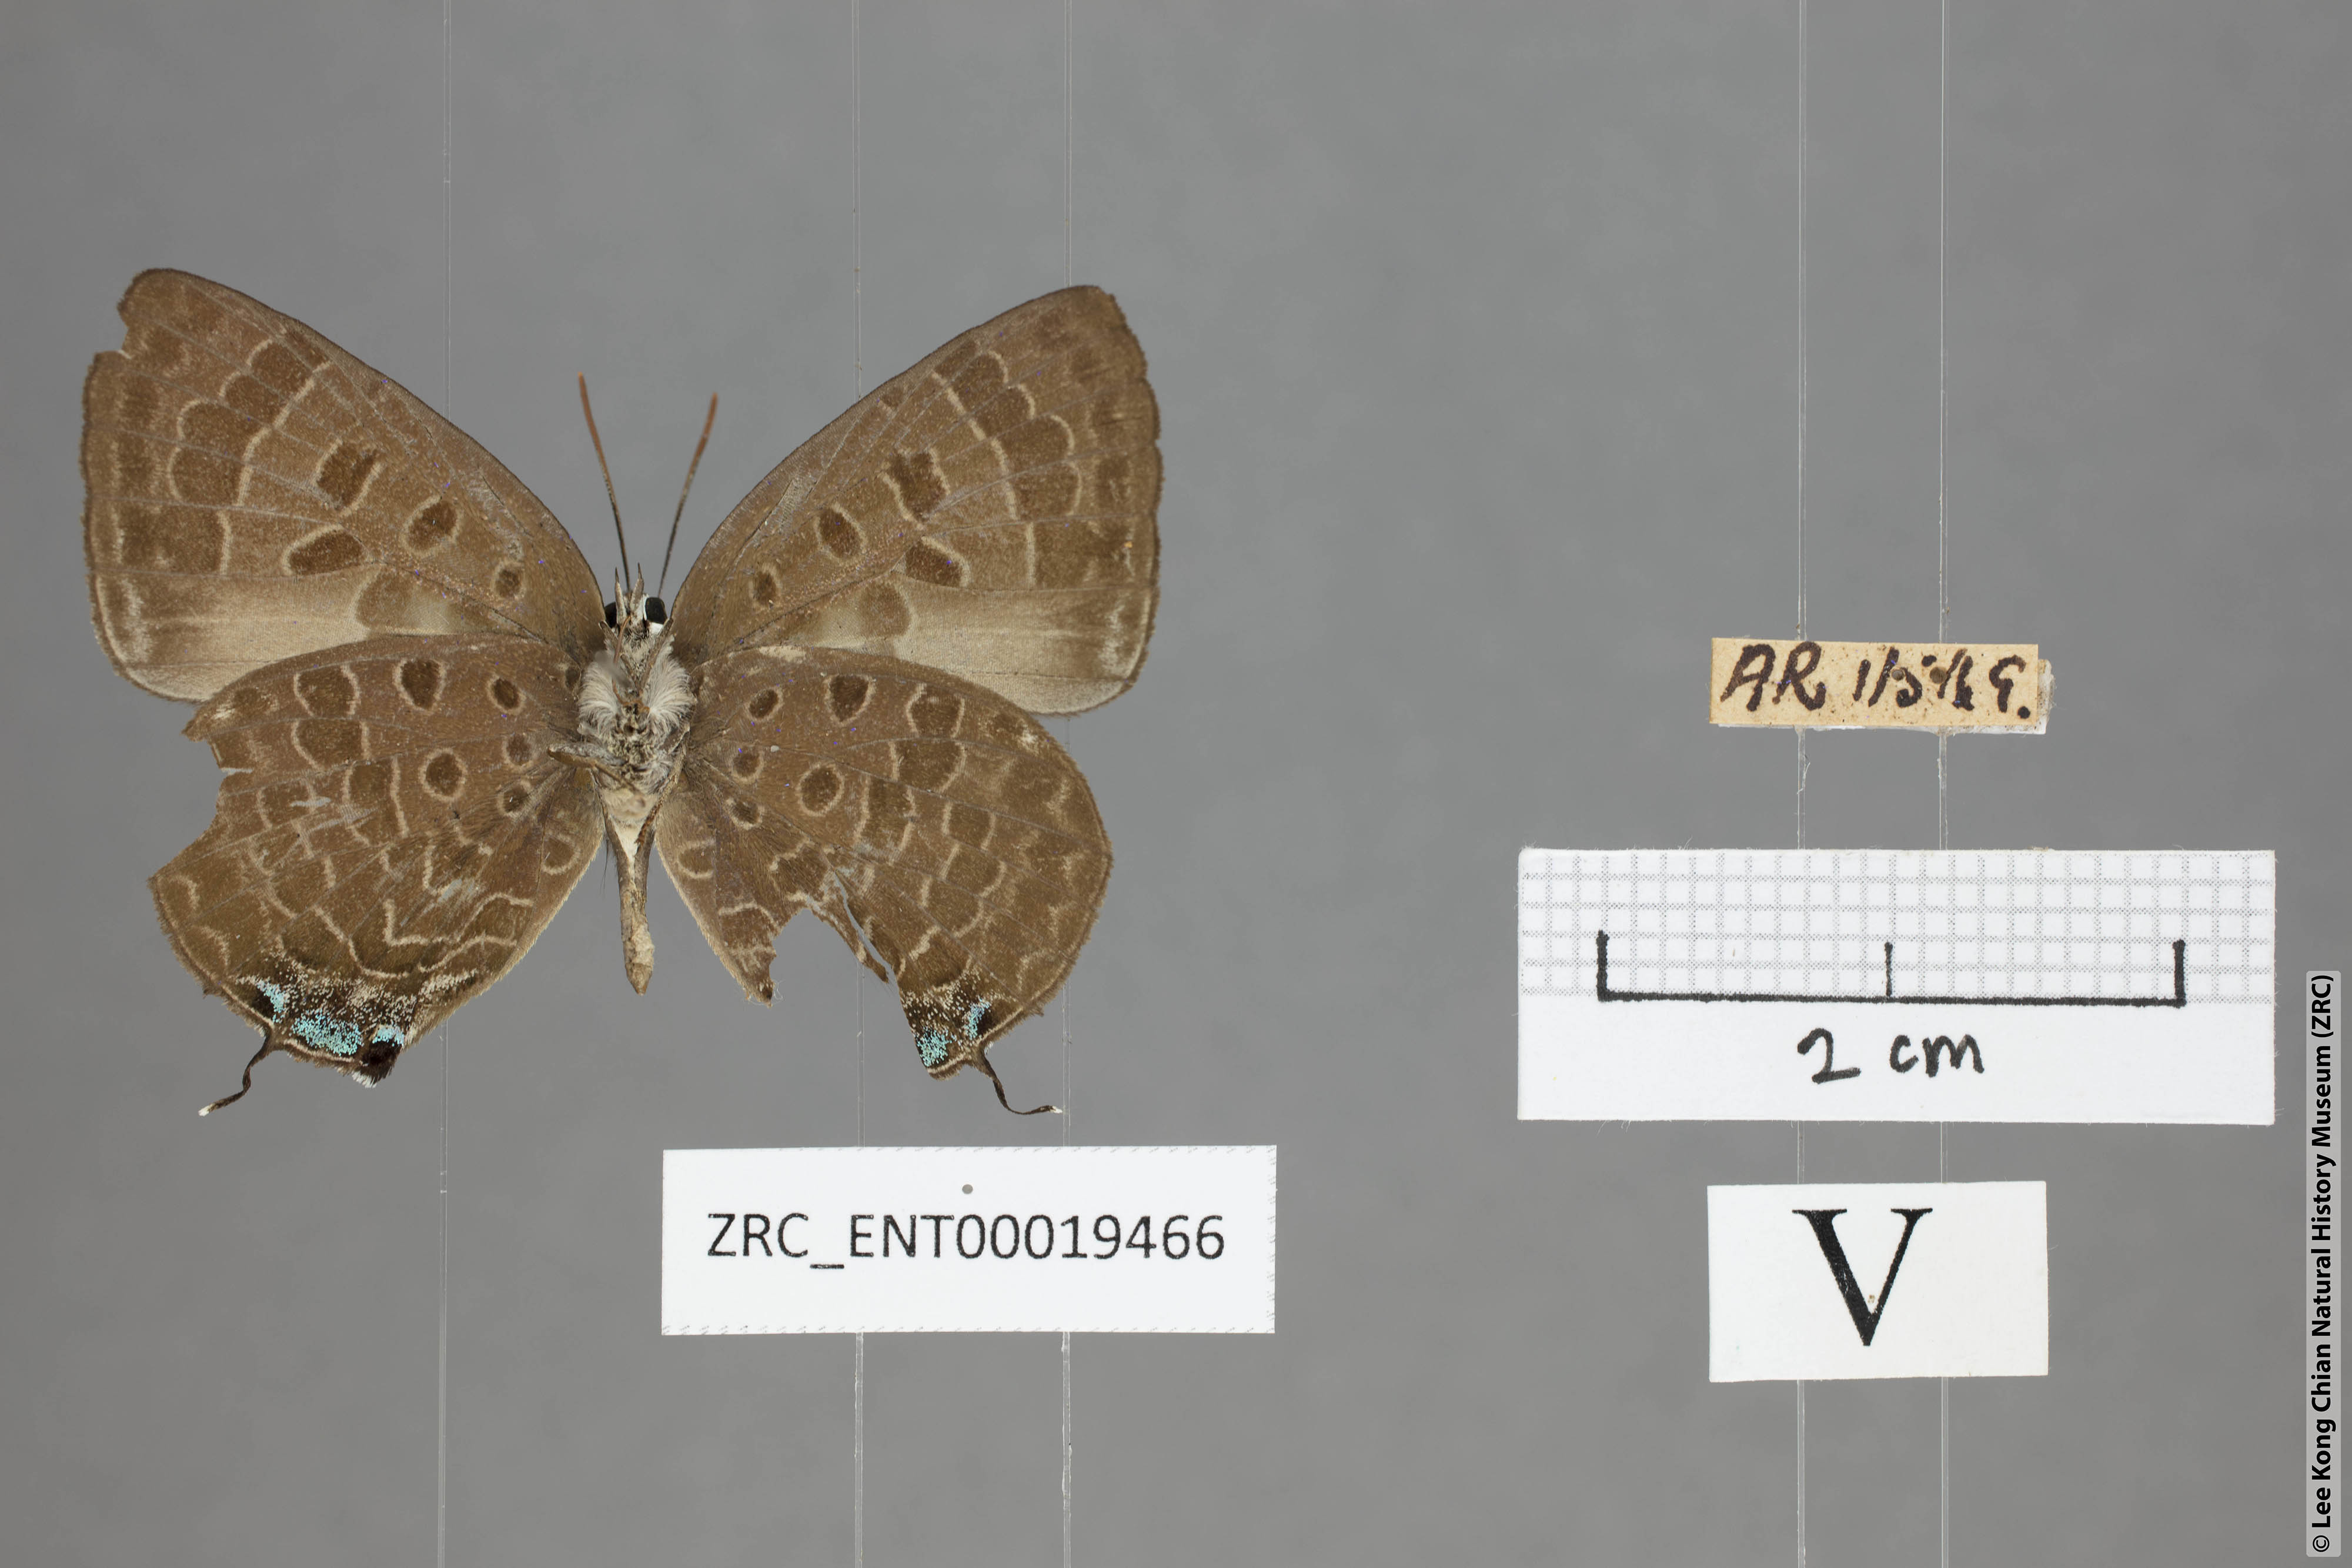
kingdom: Animalia
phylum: Arthropoda
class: Insecta
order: Lepidoptera
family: Lycaenidae
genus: Arhopala
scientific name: Arhopala azinis
